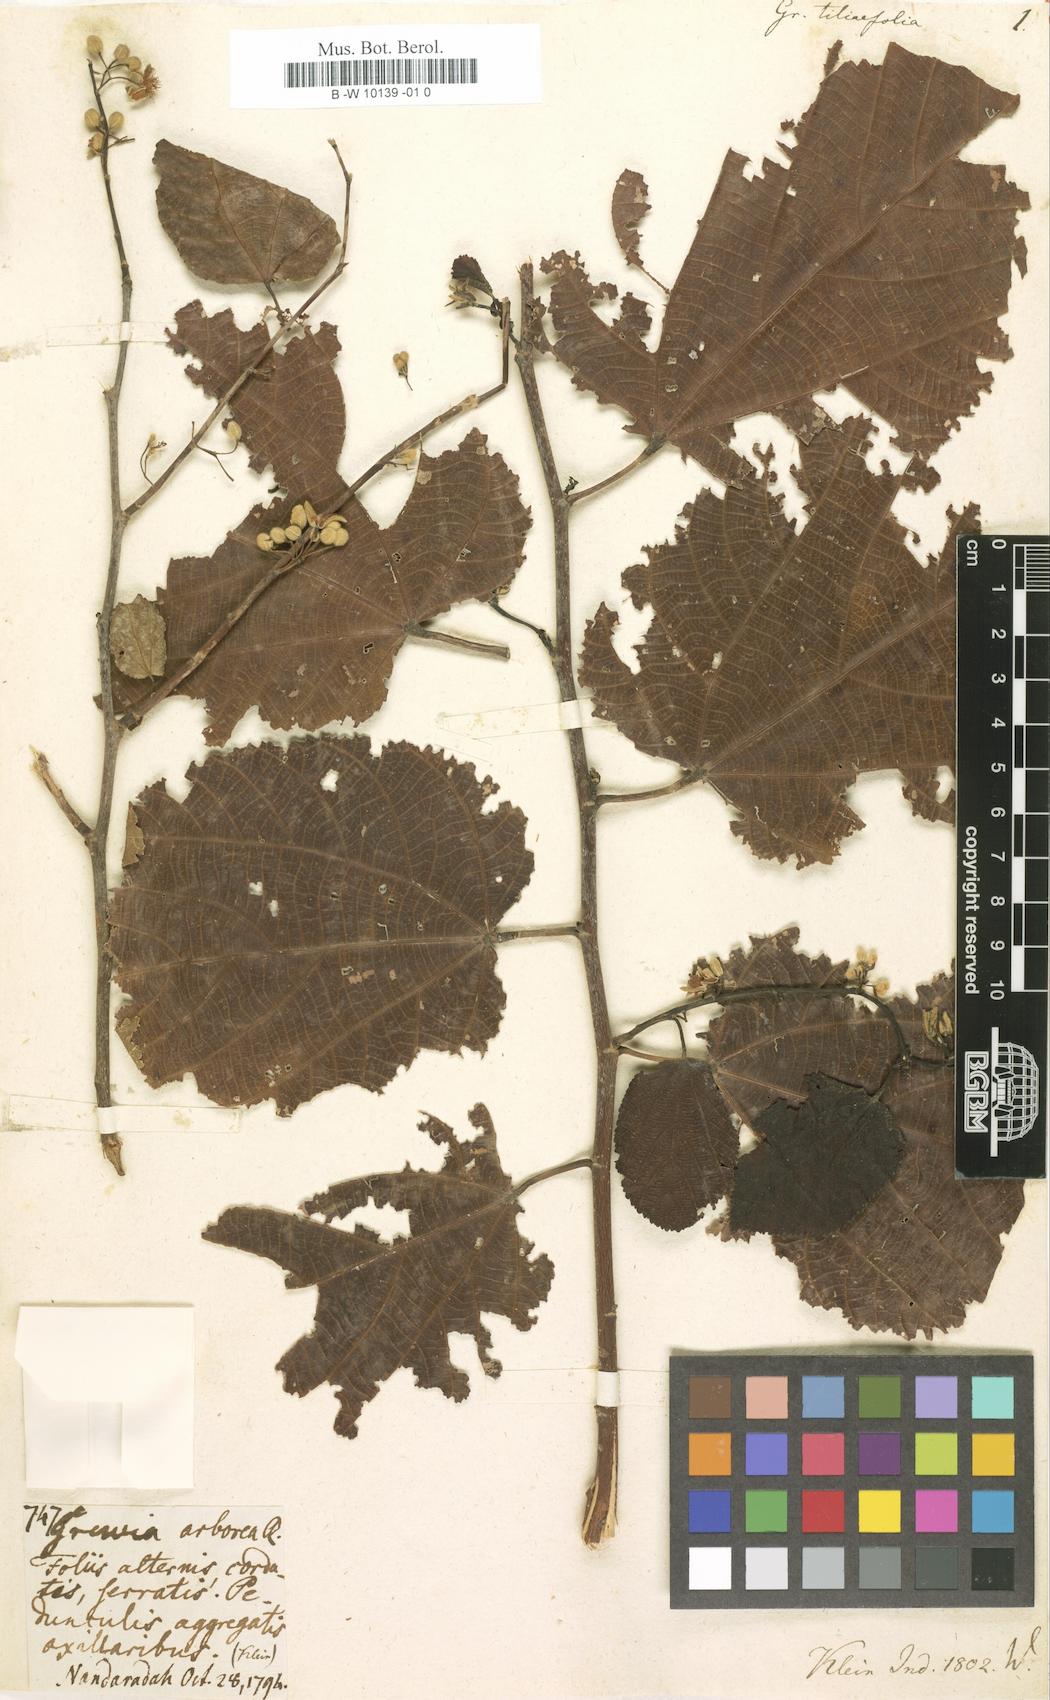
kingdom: Plantae
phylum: Tracheophyta
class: Magnoliopsida
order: Malvales
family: Malvaceae
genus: Grewia
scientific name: Grewia tiliifolia
